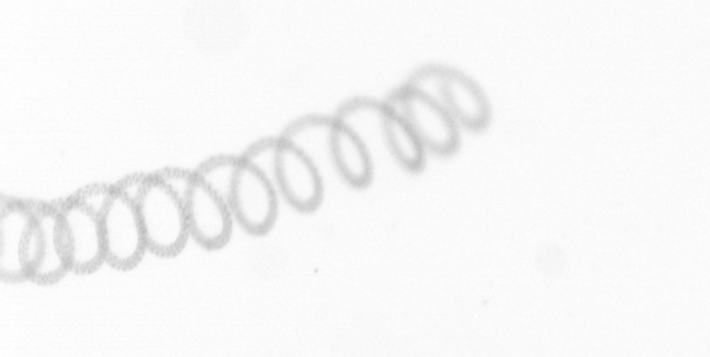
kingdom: Chromista
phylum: Ochrophyta
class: Bacillariophyceae
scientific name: Bacillariophyceae
